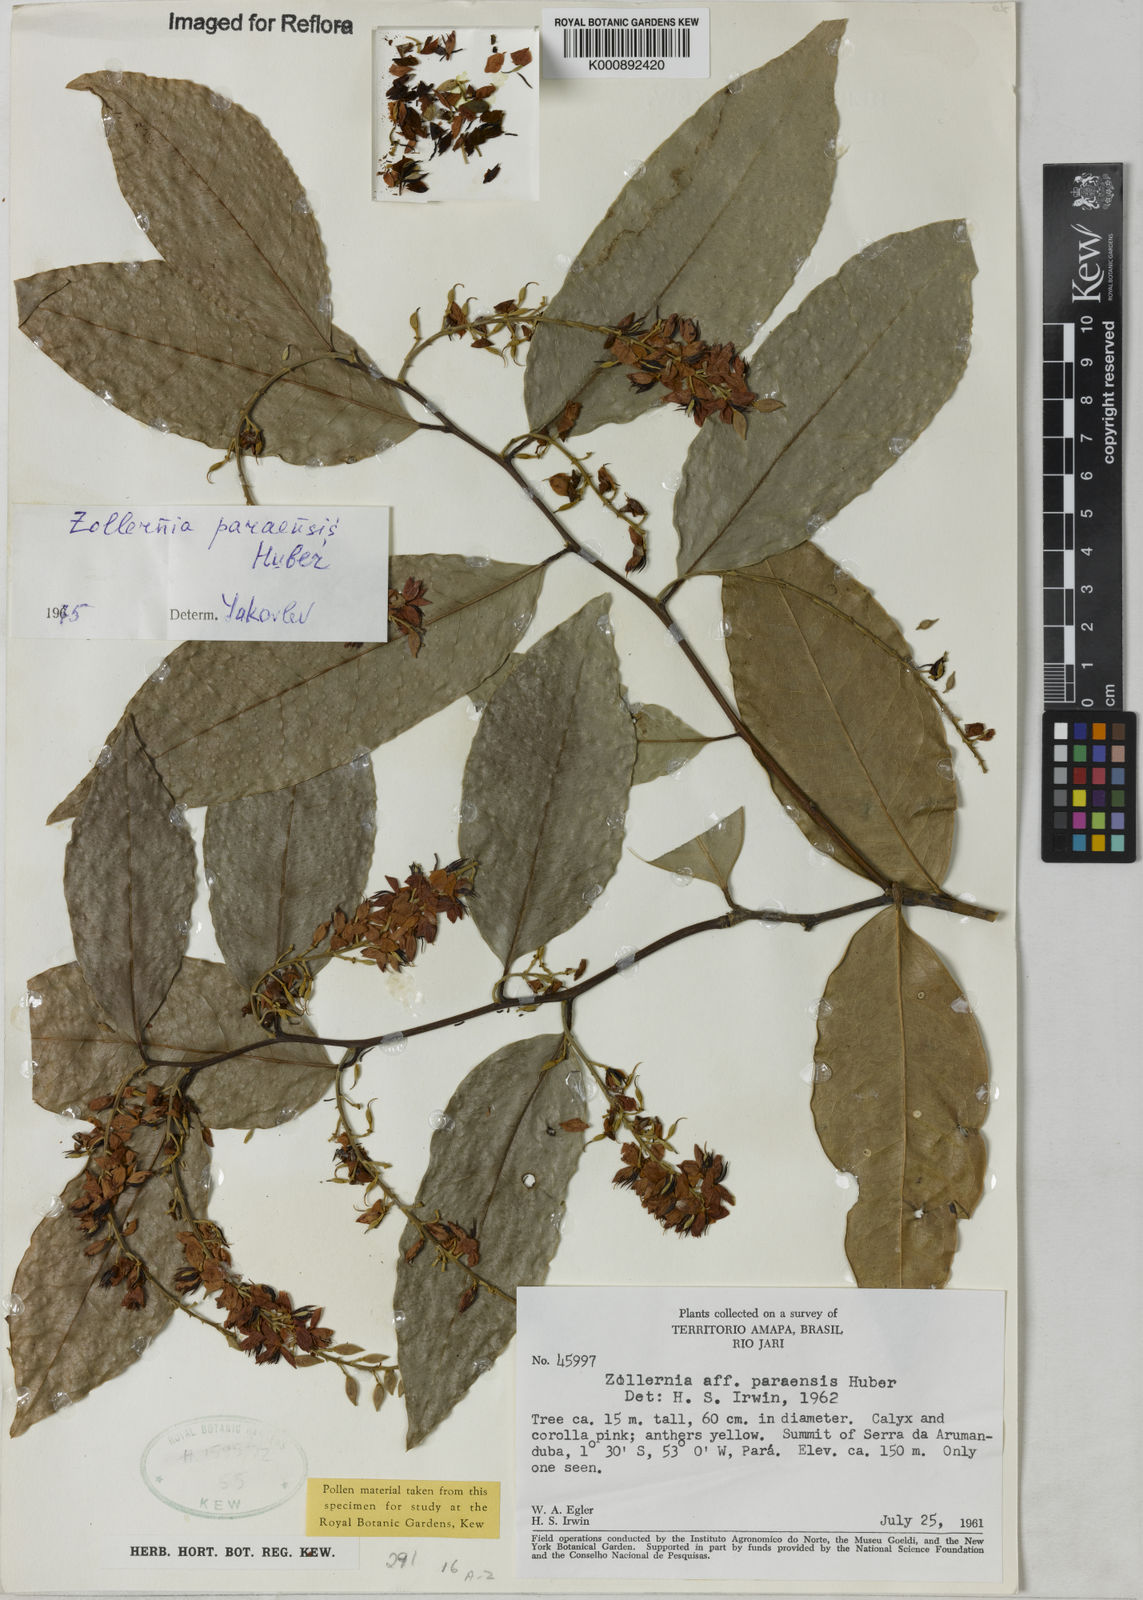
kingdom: Plantae
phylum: Tracheophyta
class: Magnoliopsida
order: Fabales
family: Fabaceae
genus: Zollernia
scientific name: Zollernia paraensis
